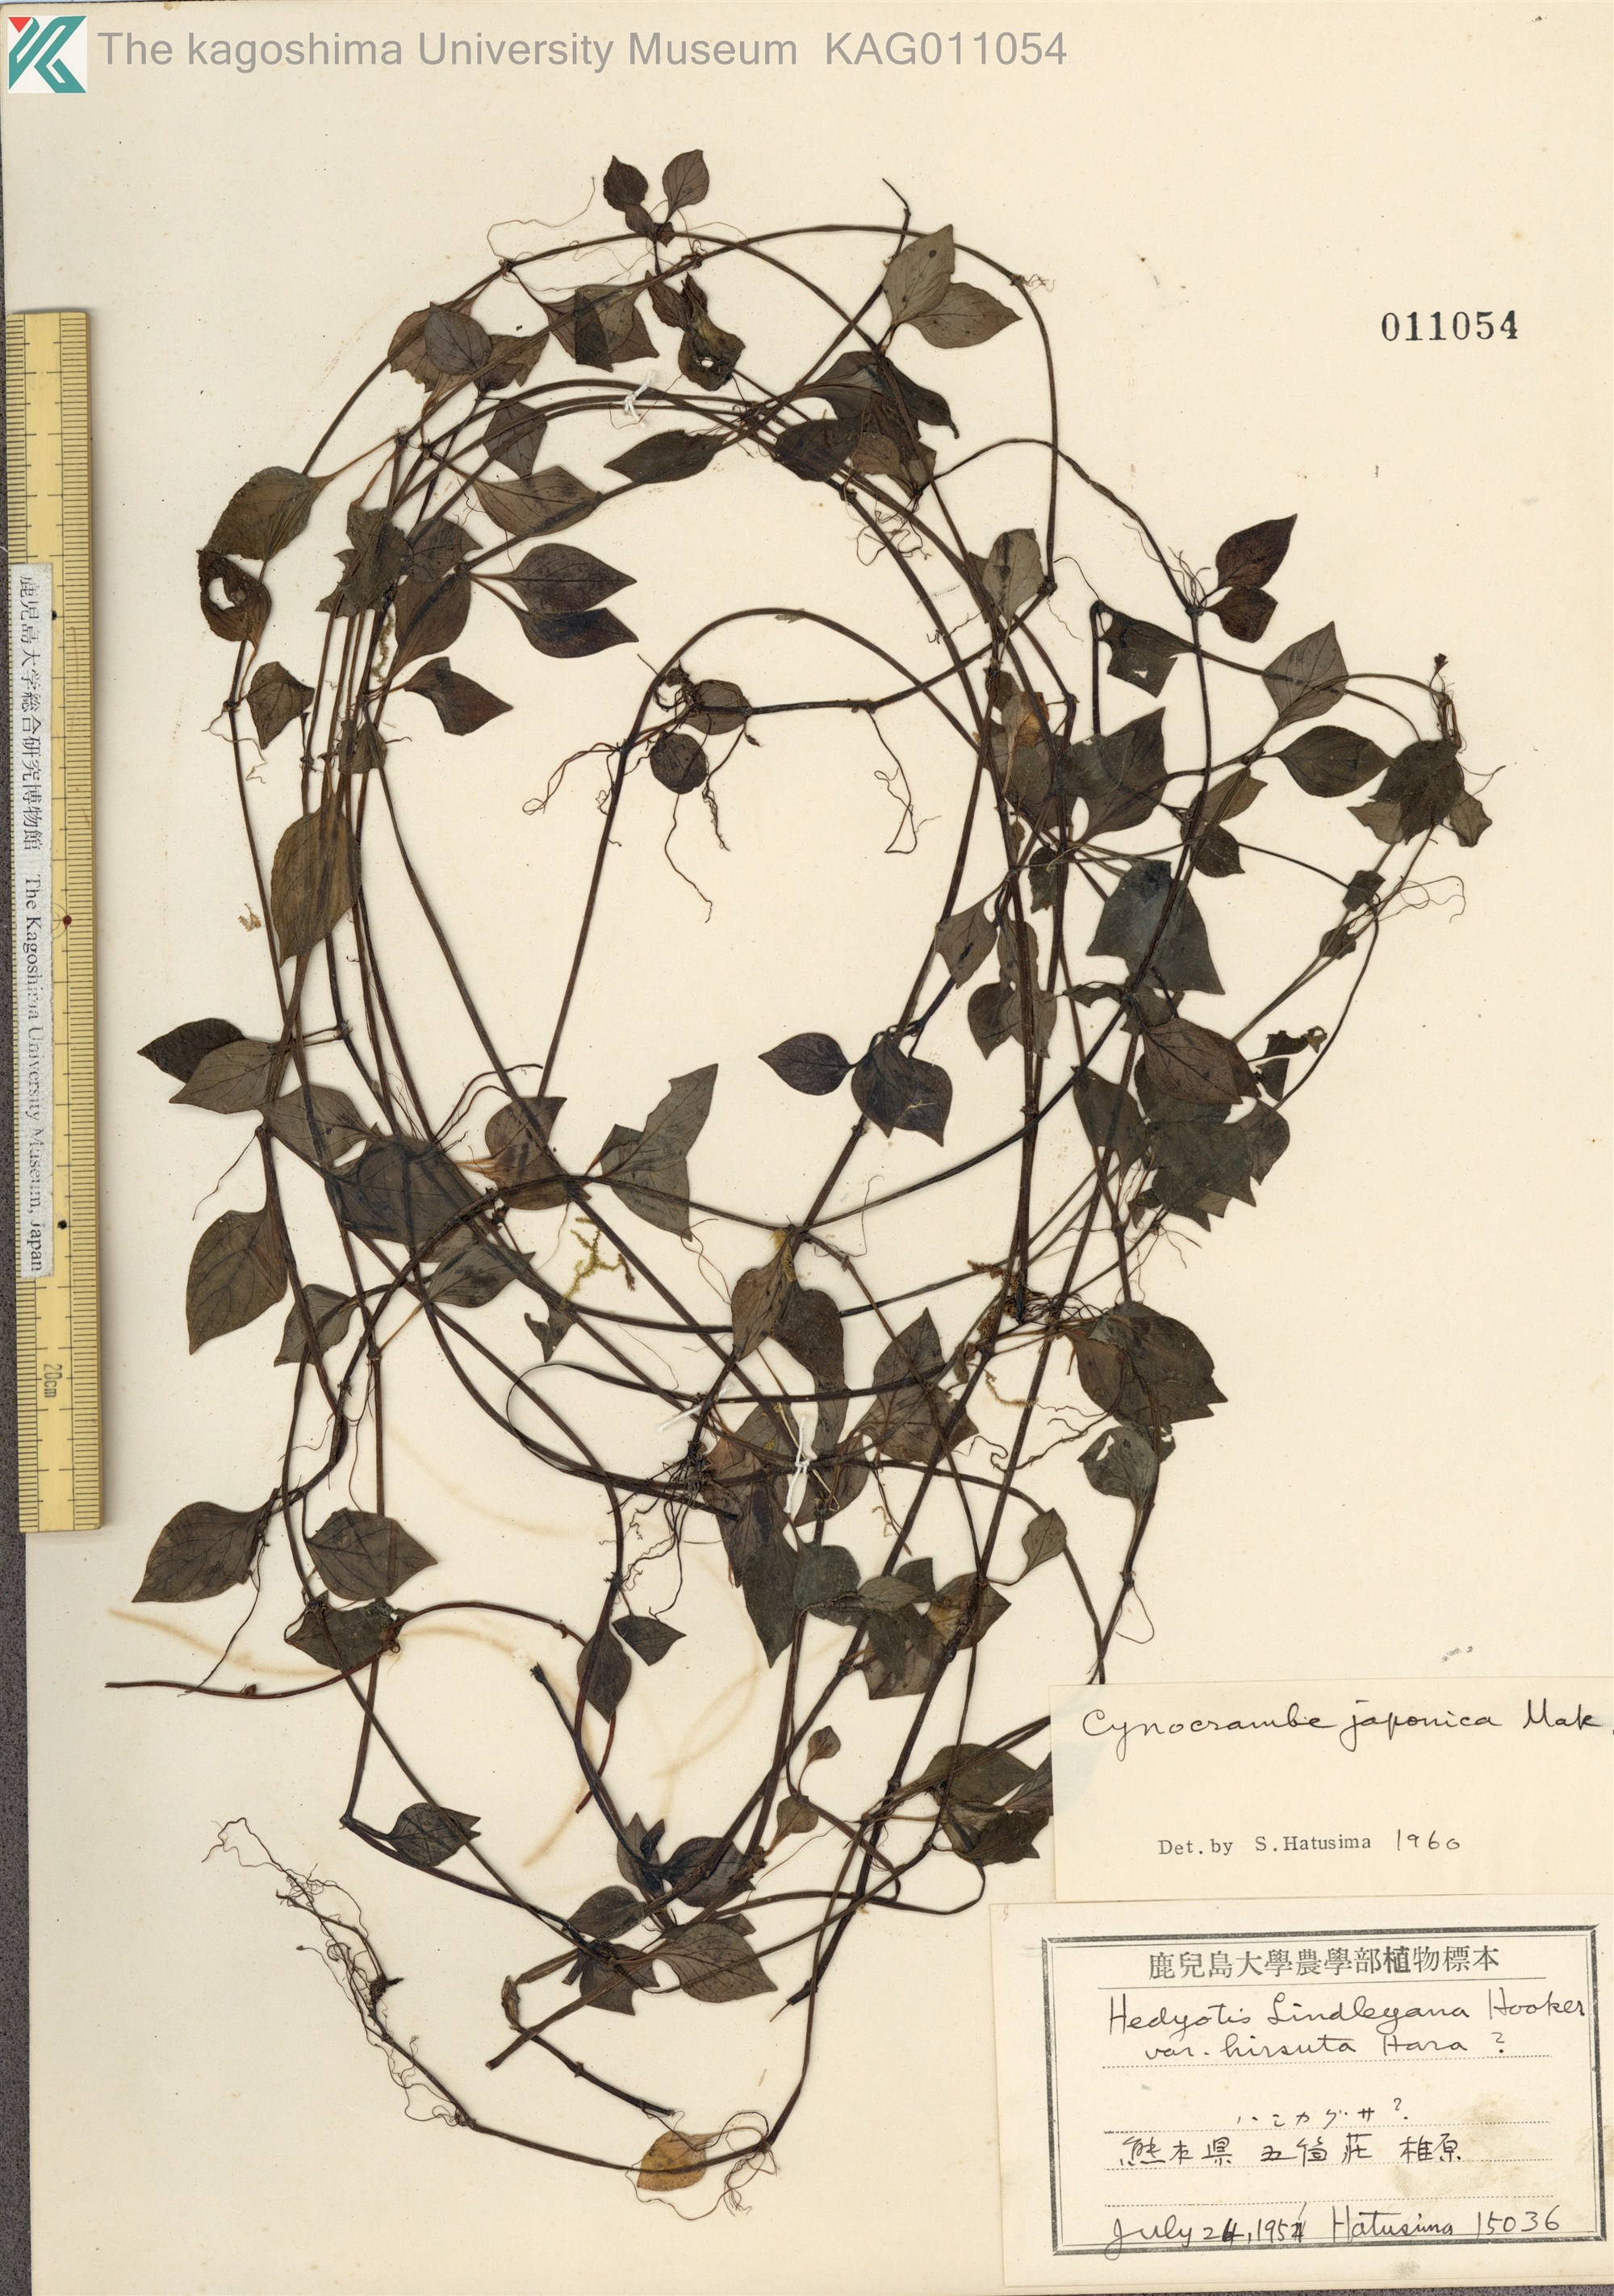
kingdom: Plantae
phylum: Tracheophyta
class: Magnoliopsida
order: Gentianales
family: Rubiaceae
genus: Theligonum
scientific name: Theligonum japonicum
